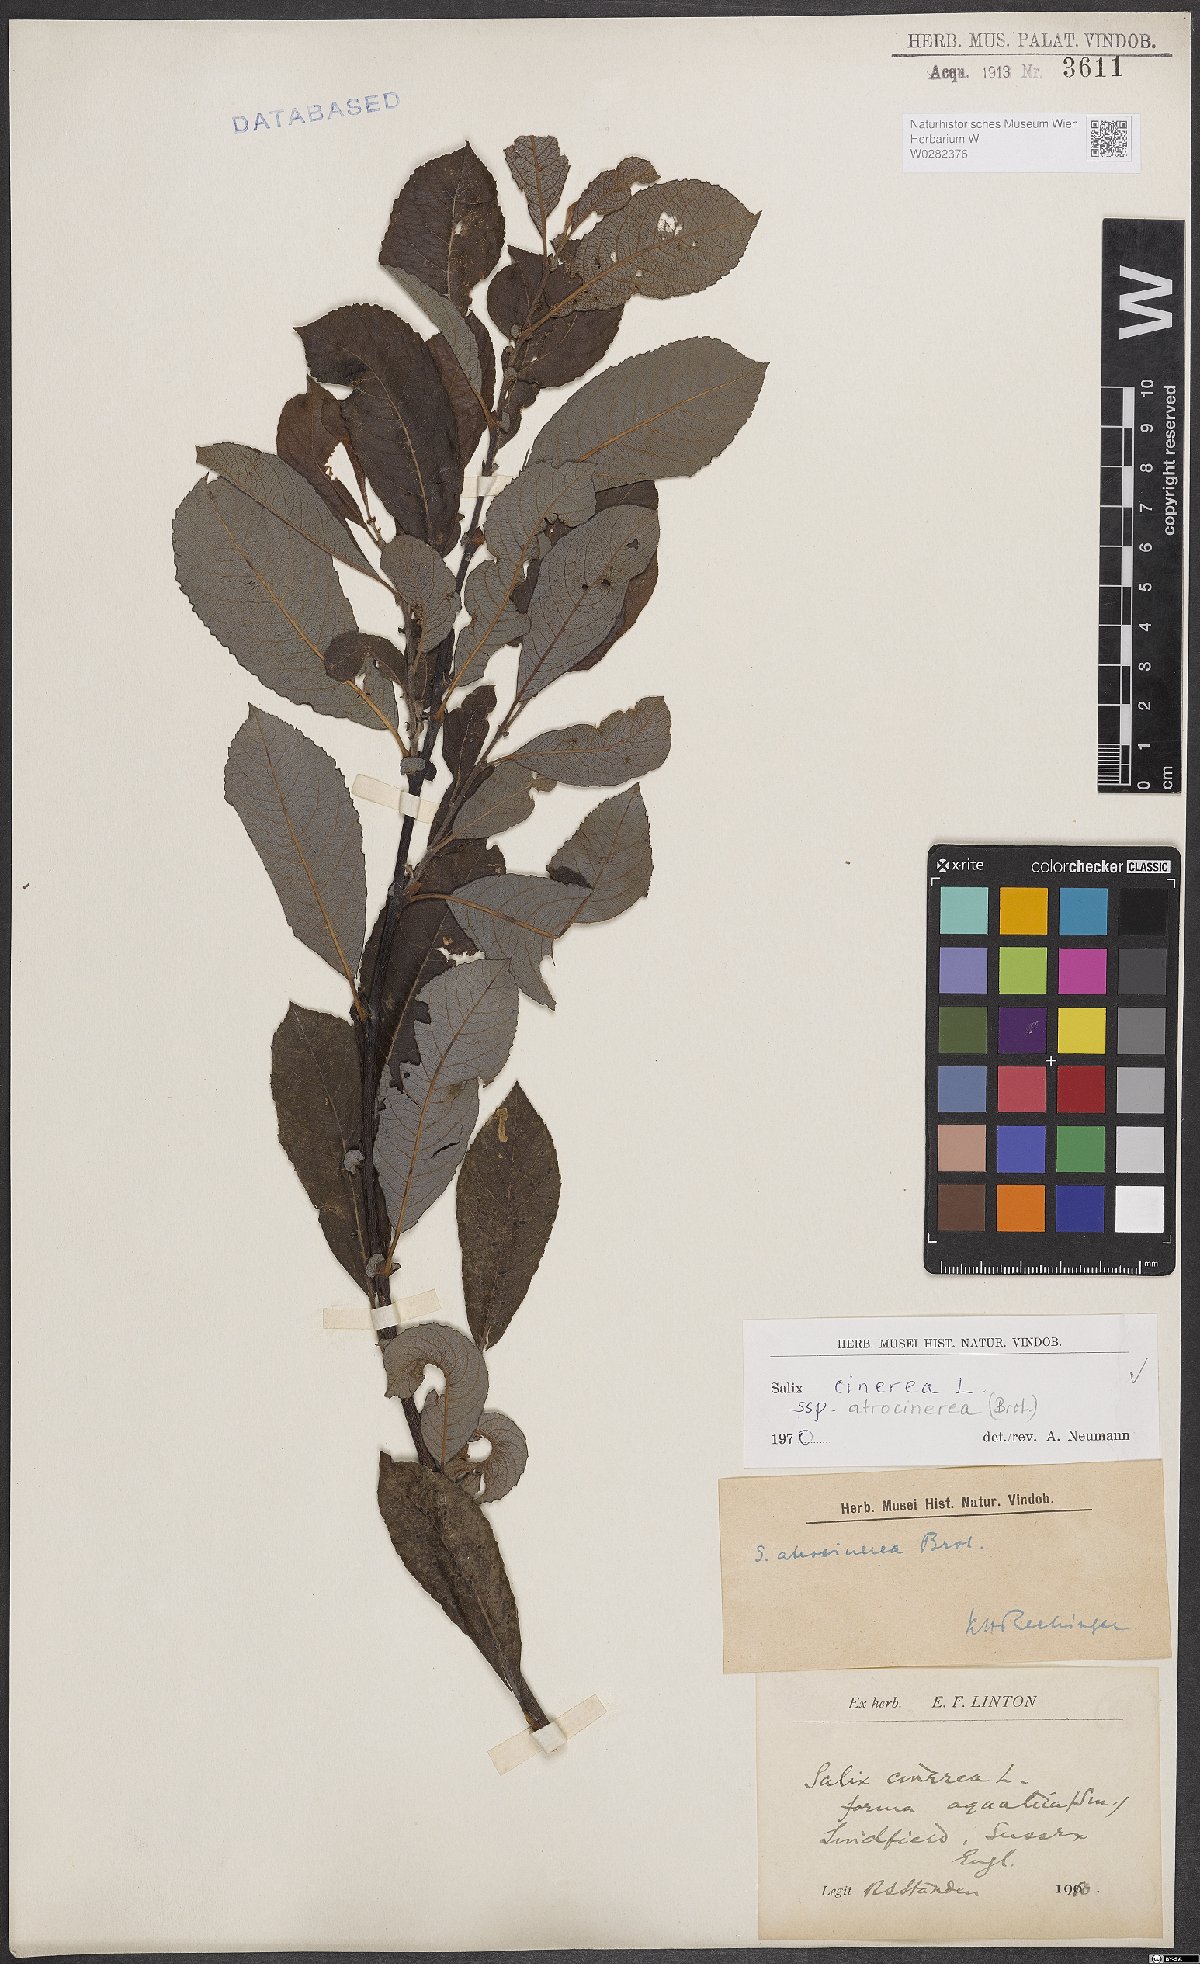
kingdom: Plantae
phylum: Tracheophyta
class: Magnoliopsida
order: Malpighiales
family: Salicaceae
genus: Salix
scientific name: Salix atrocinerea
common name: Rusty willow
